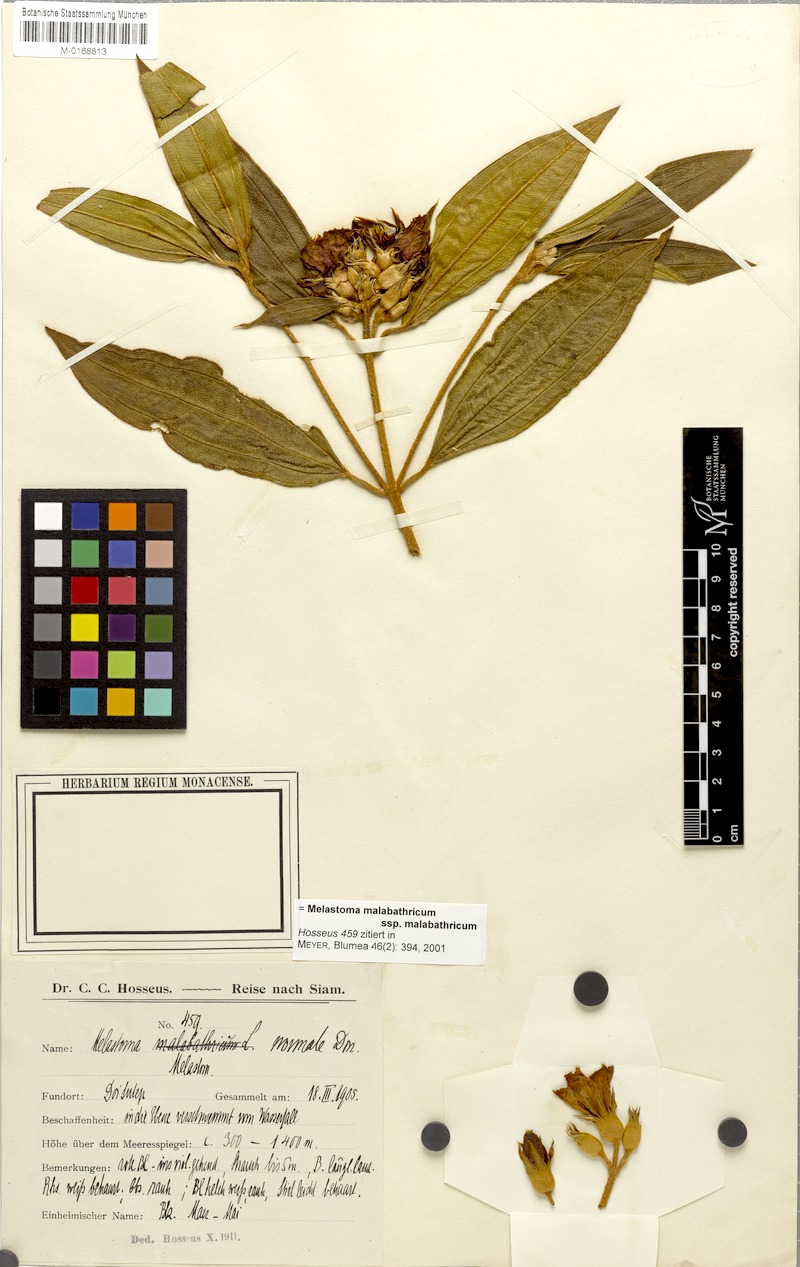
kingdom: Plantae
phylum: Tracheophyta
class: Magnoliopsida
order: Myrtales
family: Melastomataceae
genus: Melastoma
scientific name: Melastoma malabathricum
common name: Indian-rhododendron
